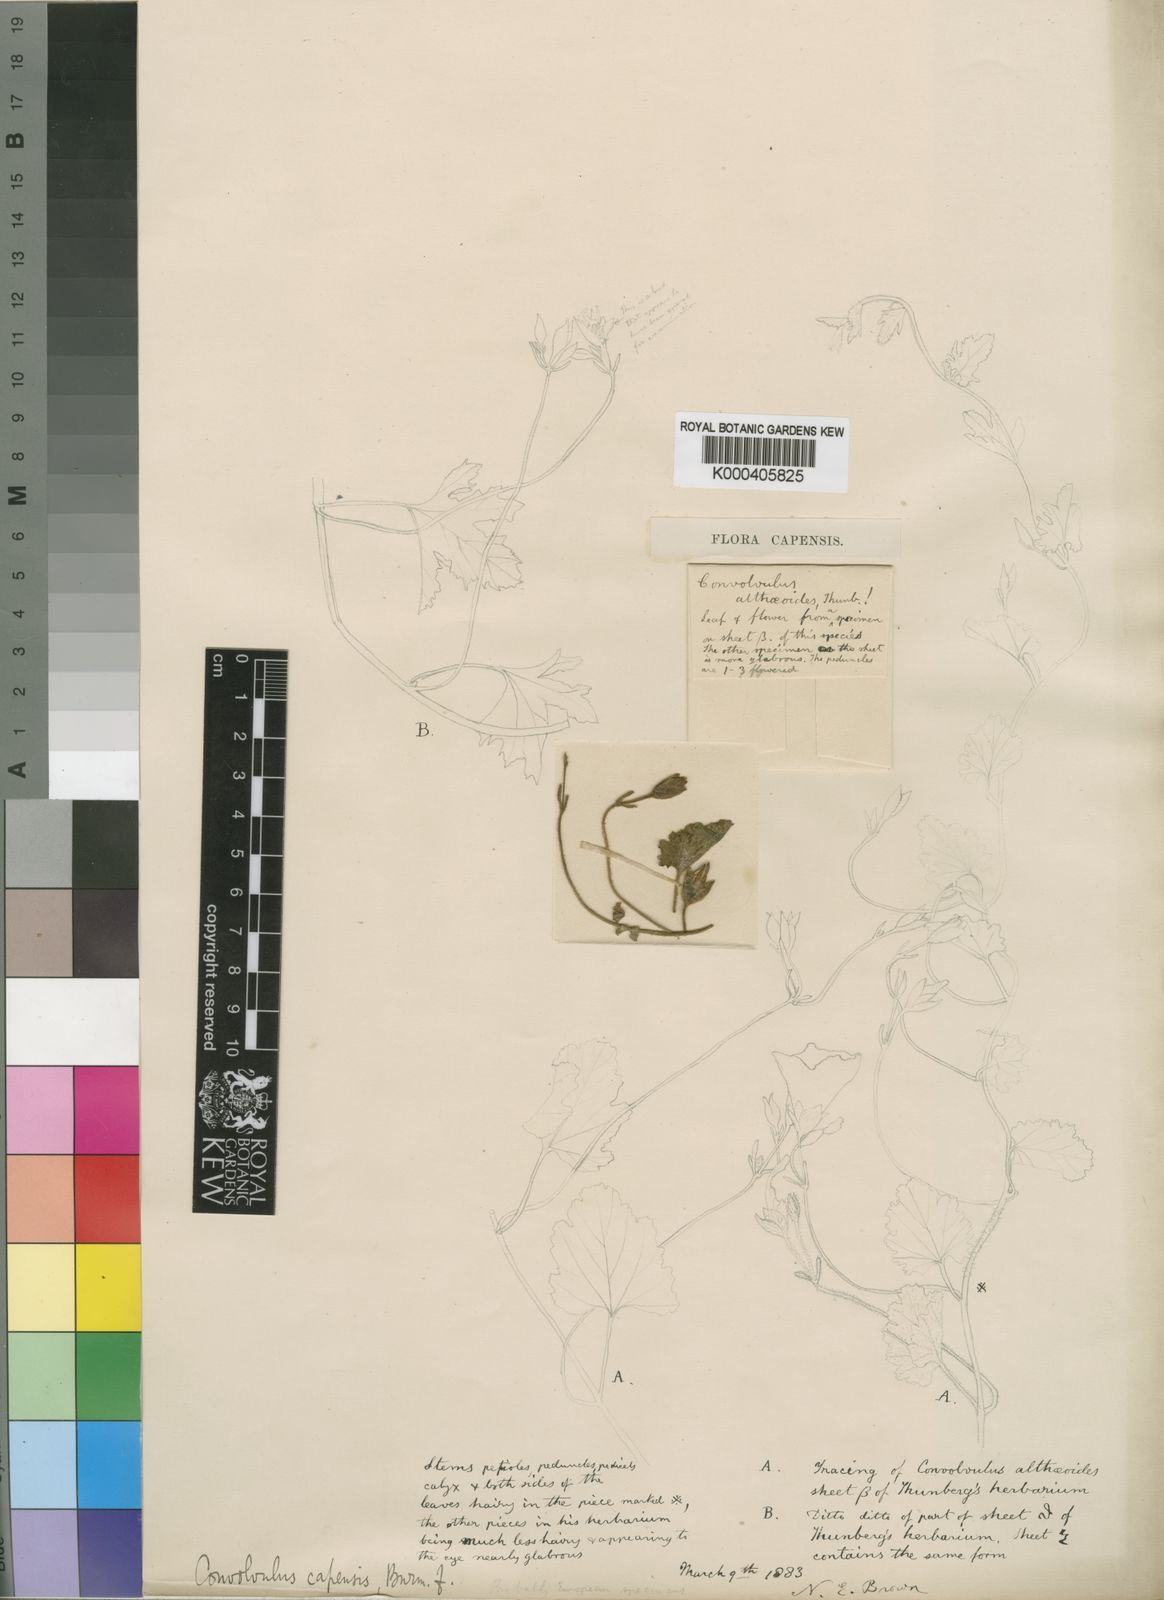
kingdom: Plantae
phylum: Tracheophyta
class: Magnoliopsida
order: Solanales
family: Convolvulaceae
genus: Convolvulus
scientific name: Convolvulus capensis
